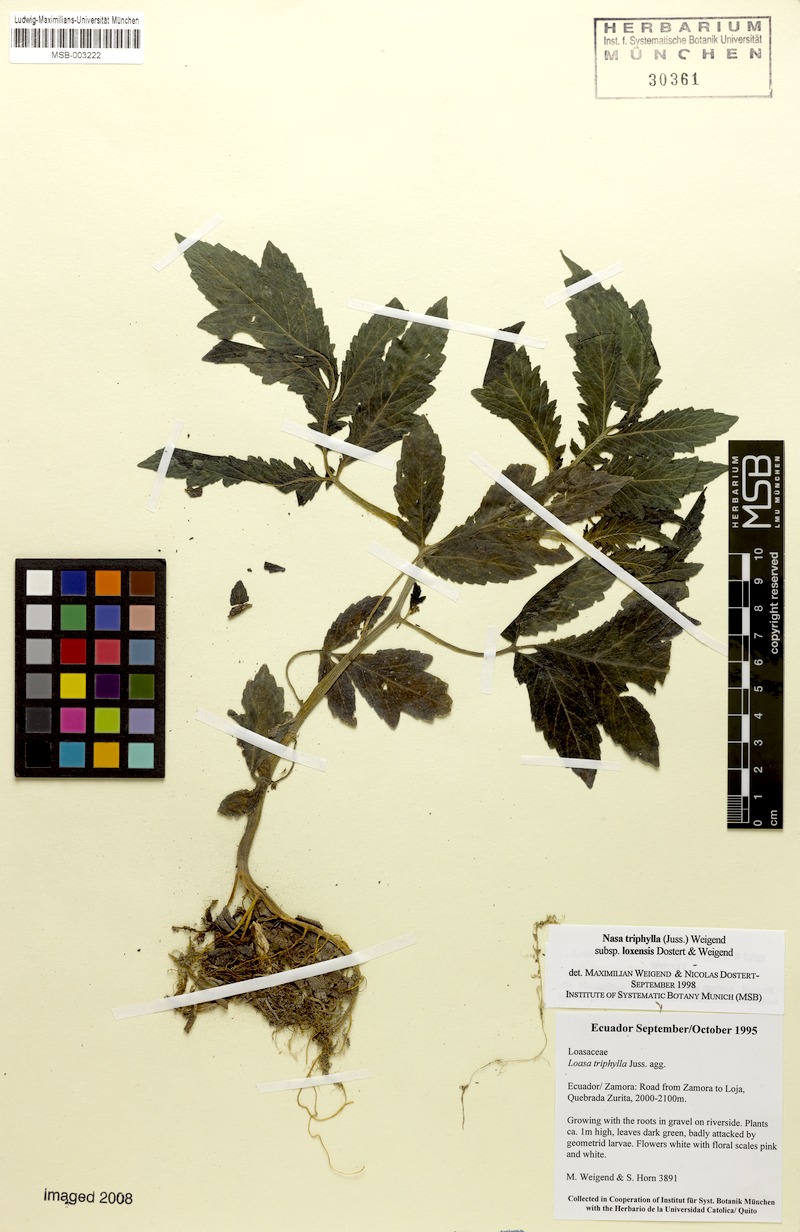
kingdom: Plantae
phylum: Tracheophyta
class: Magnoliopsida
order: Cornales
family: Loasaceae
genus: Nasa
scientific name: Nasa triphylla
